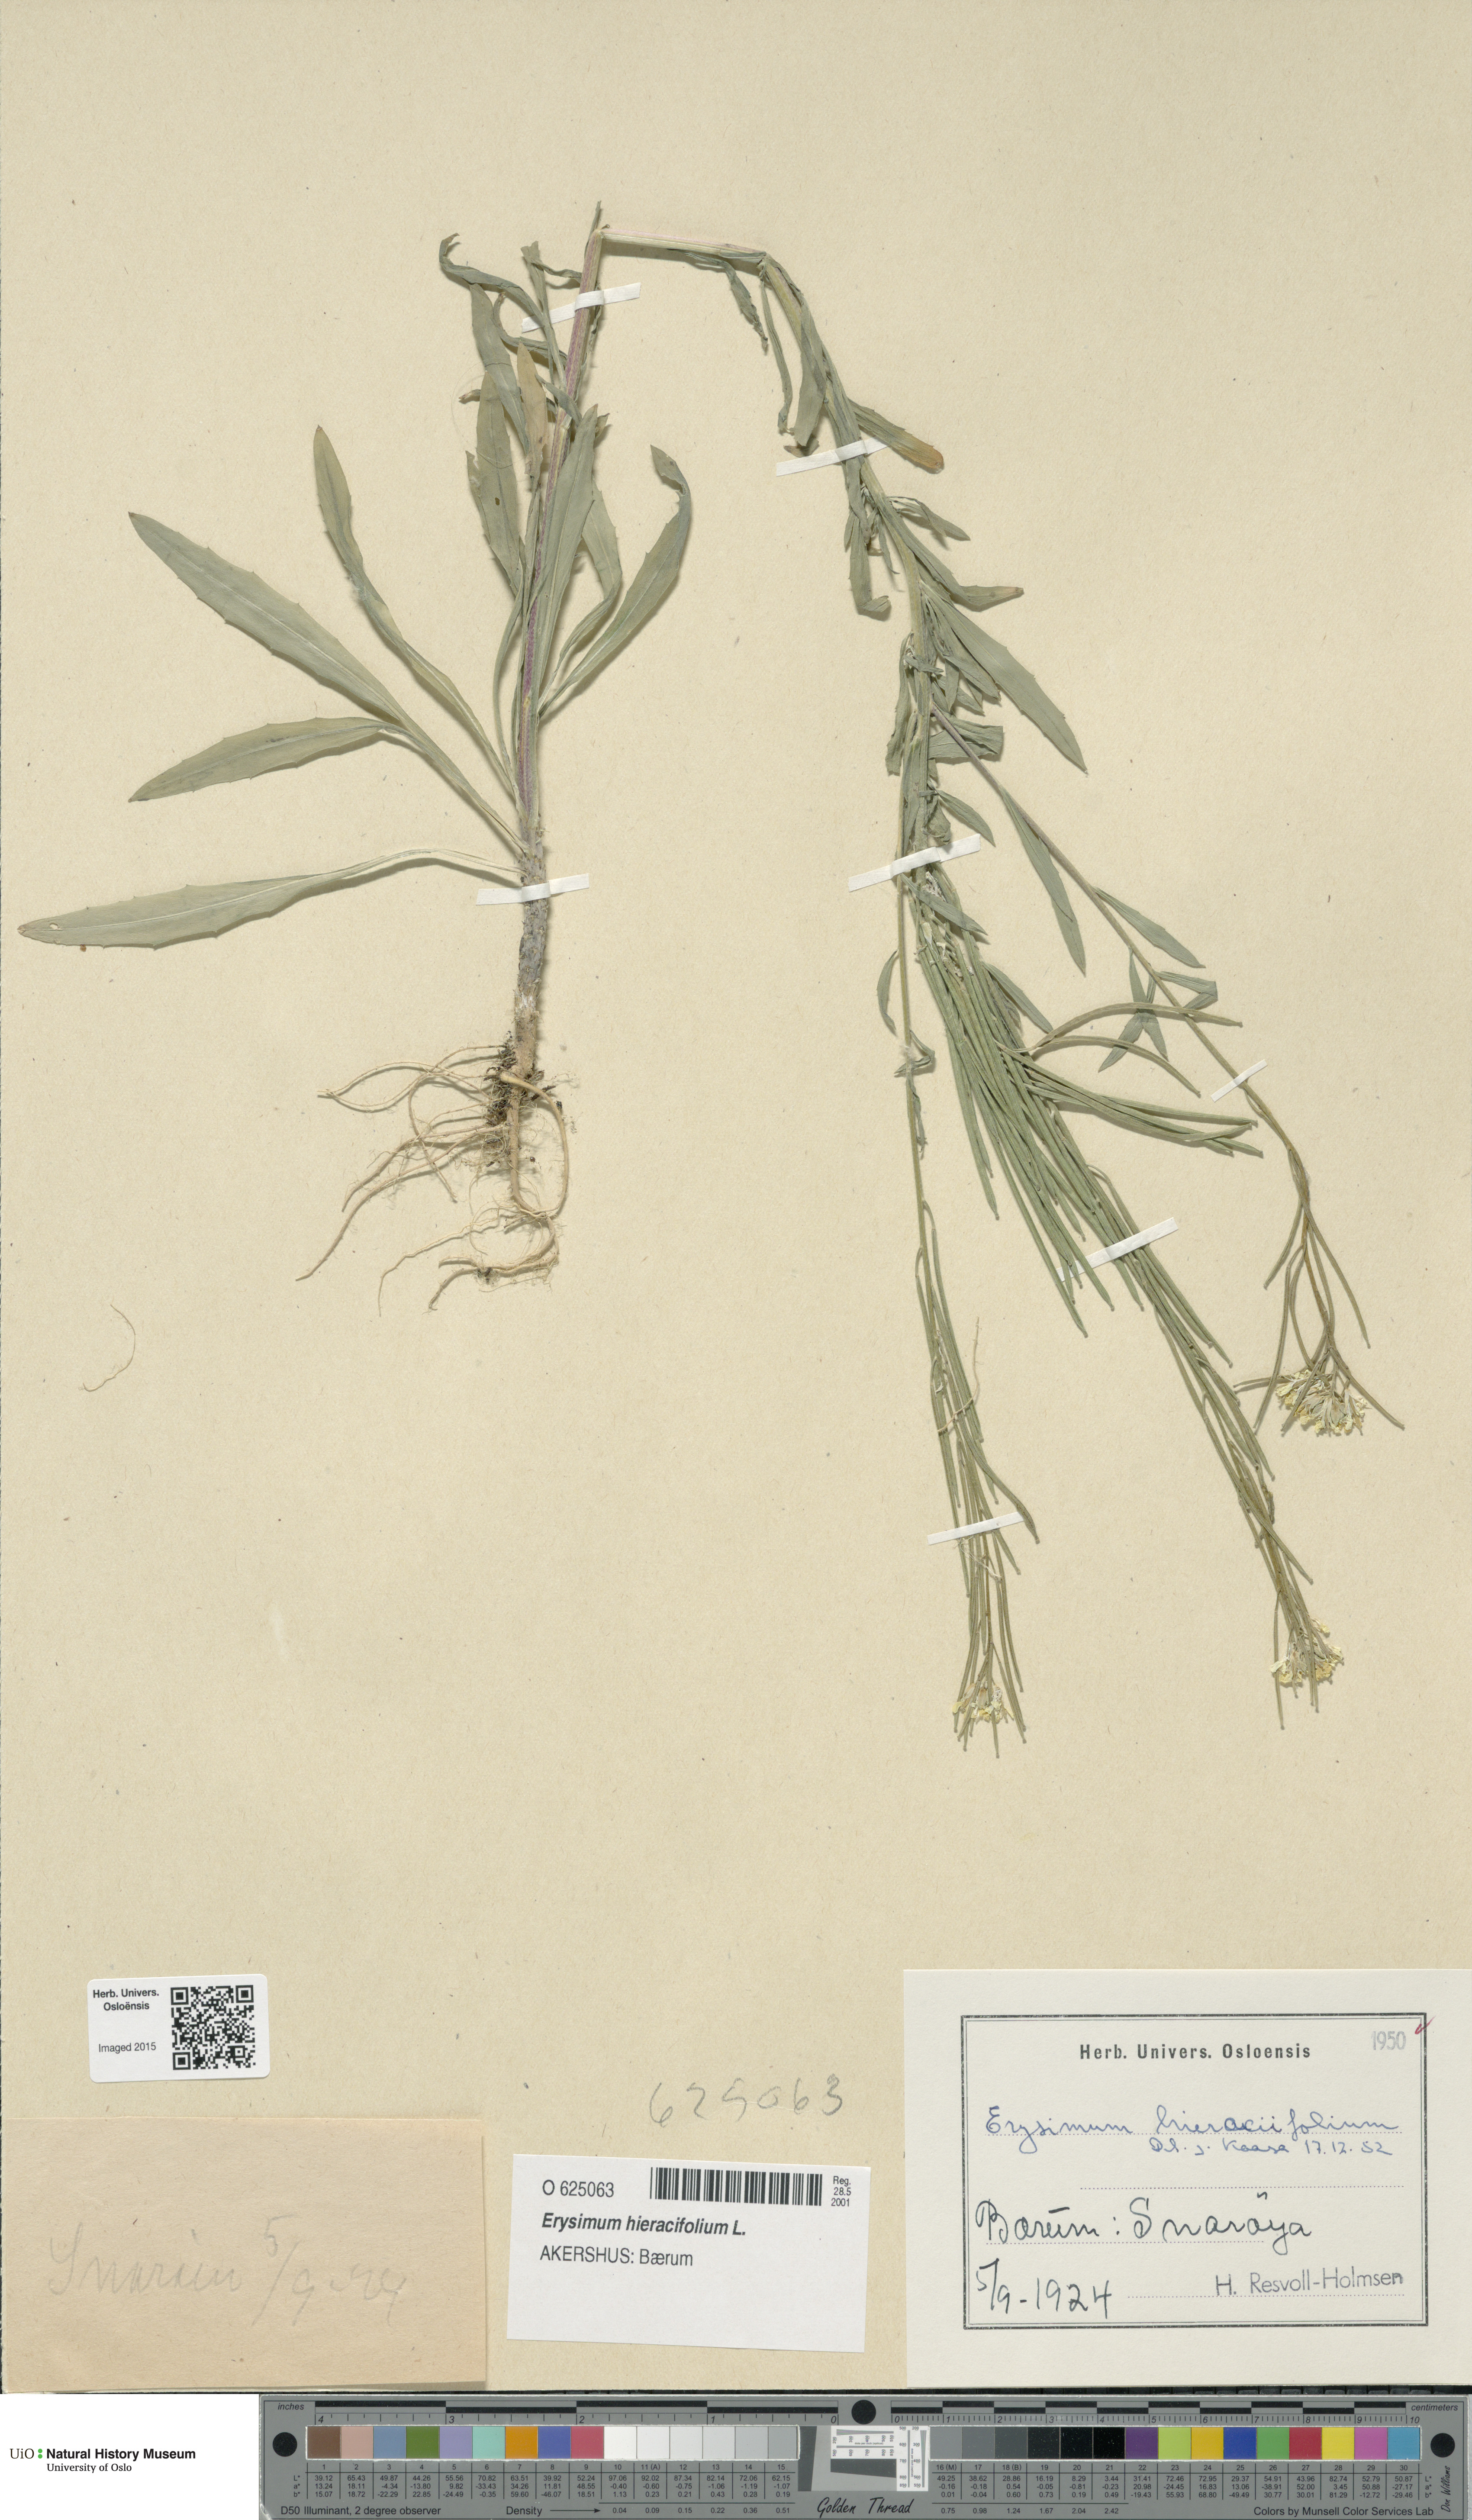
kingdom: Plantae
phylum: Tracheophyta
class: Magnoliopsida
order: Brassicales
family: Brassicaceae
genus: Erysimum
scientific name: Erysimum virgatum
